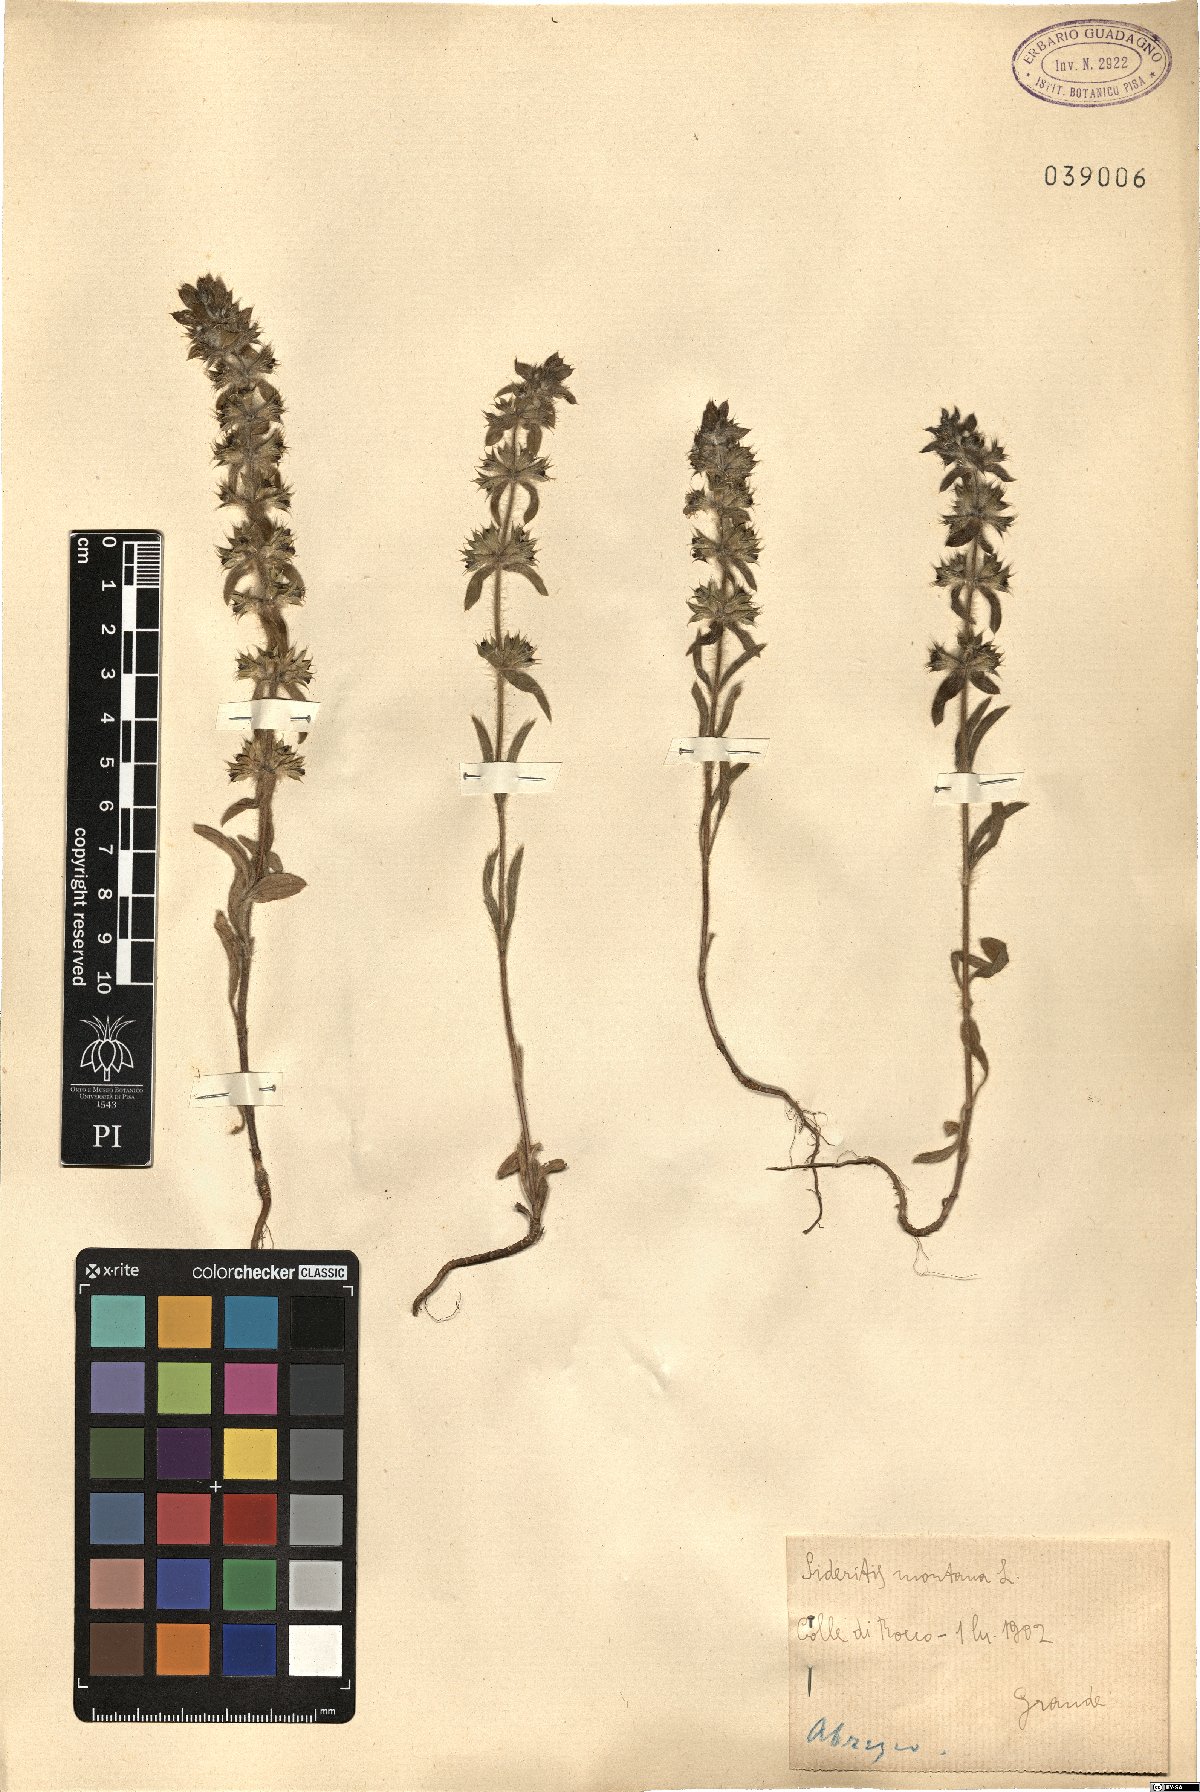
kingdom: Plantae
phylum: Tracheophyta
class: Magnoliopsida
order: Lamiales
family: Lamiaceae
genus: Sideritis
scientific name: Sideritis montana
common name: Mountain ironwort
